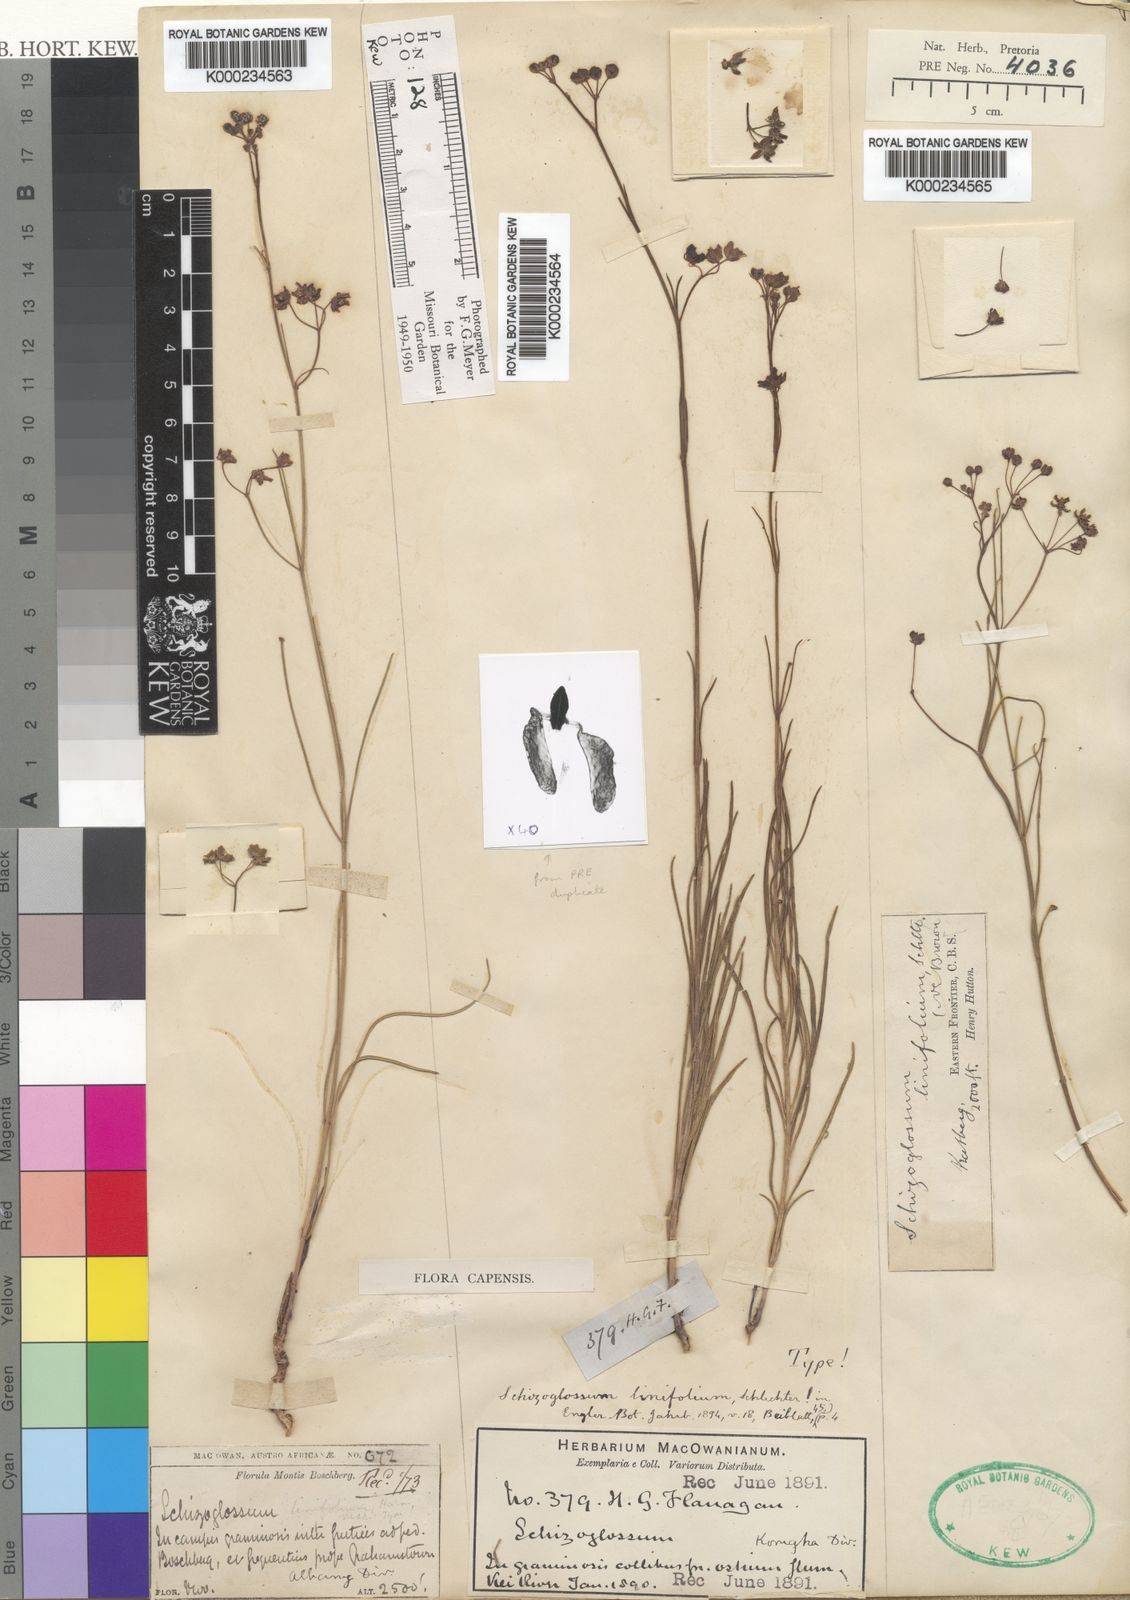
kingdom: Plantae
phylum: Tracheophyta
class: Magnoliopsida
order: Gentianales
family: Apocynaceae
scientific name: Apocynaceae
